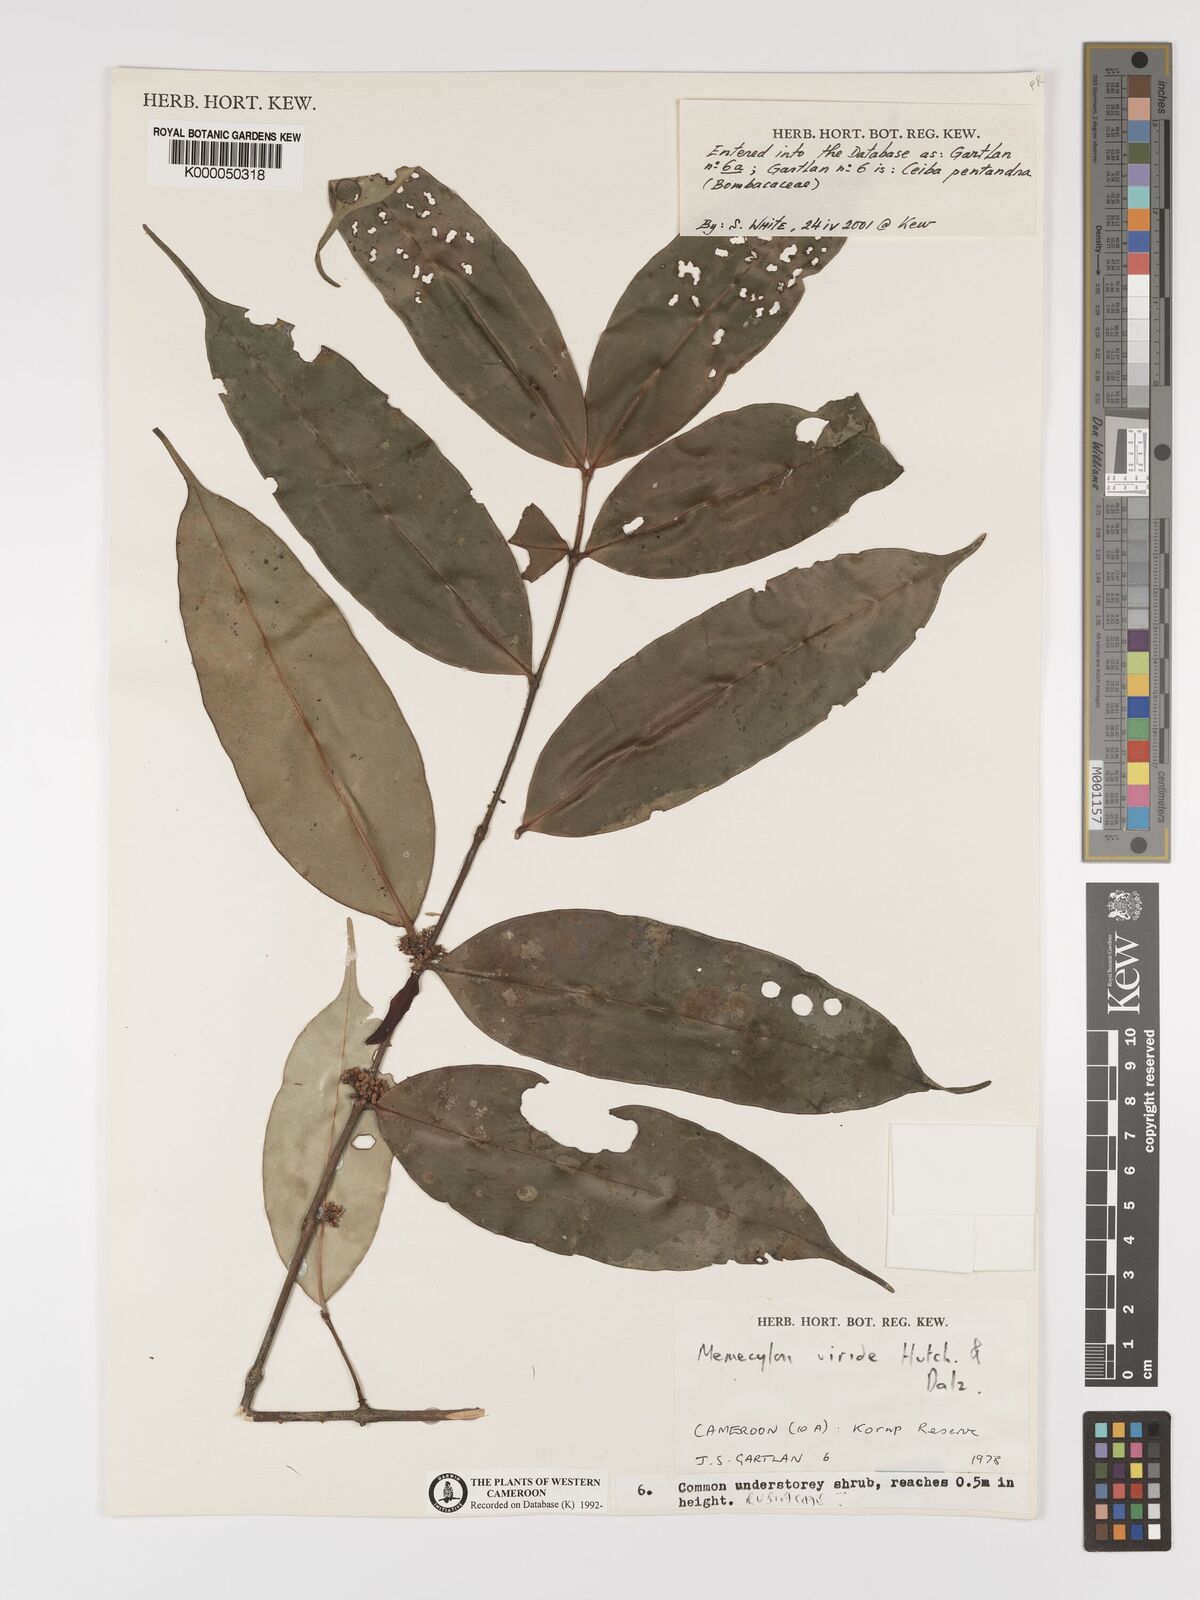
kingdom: Plantae
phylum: Tracheophyta
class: Magnoliopsida
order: Myrtales
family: Melastomataceae
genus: Memecylon
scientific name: Memecylon viride
